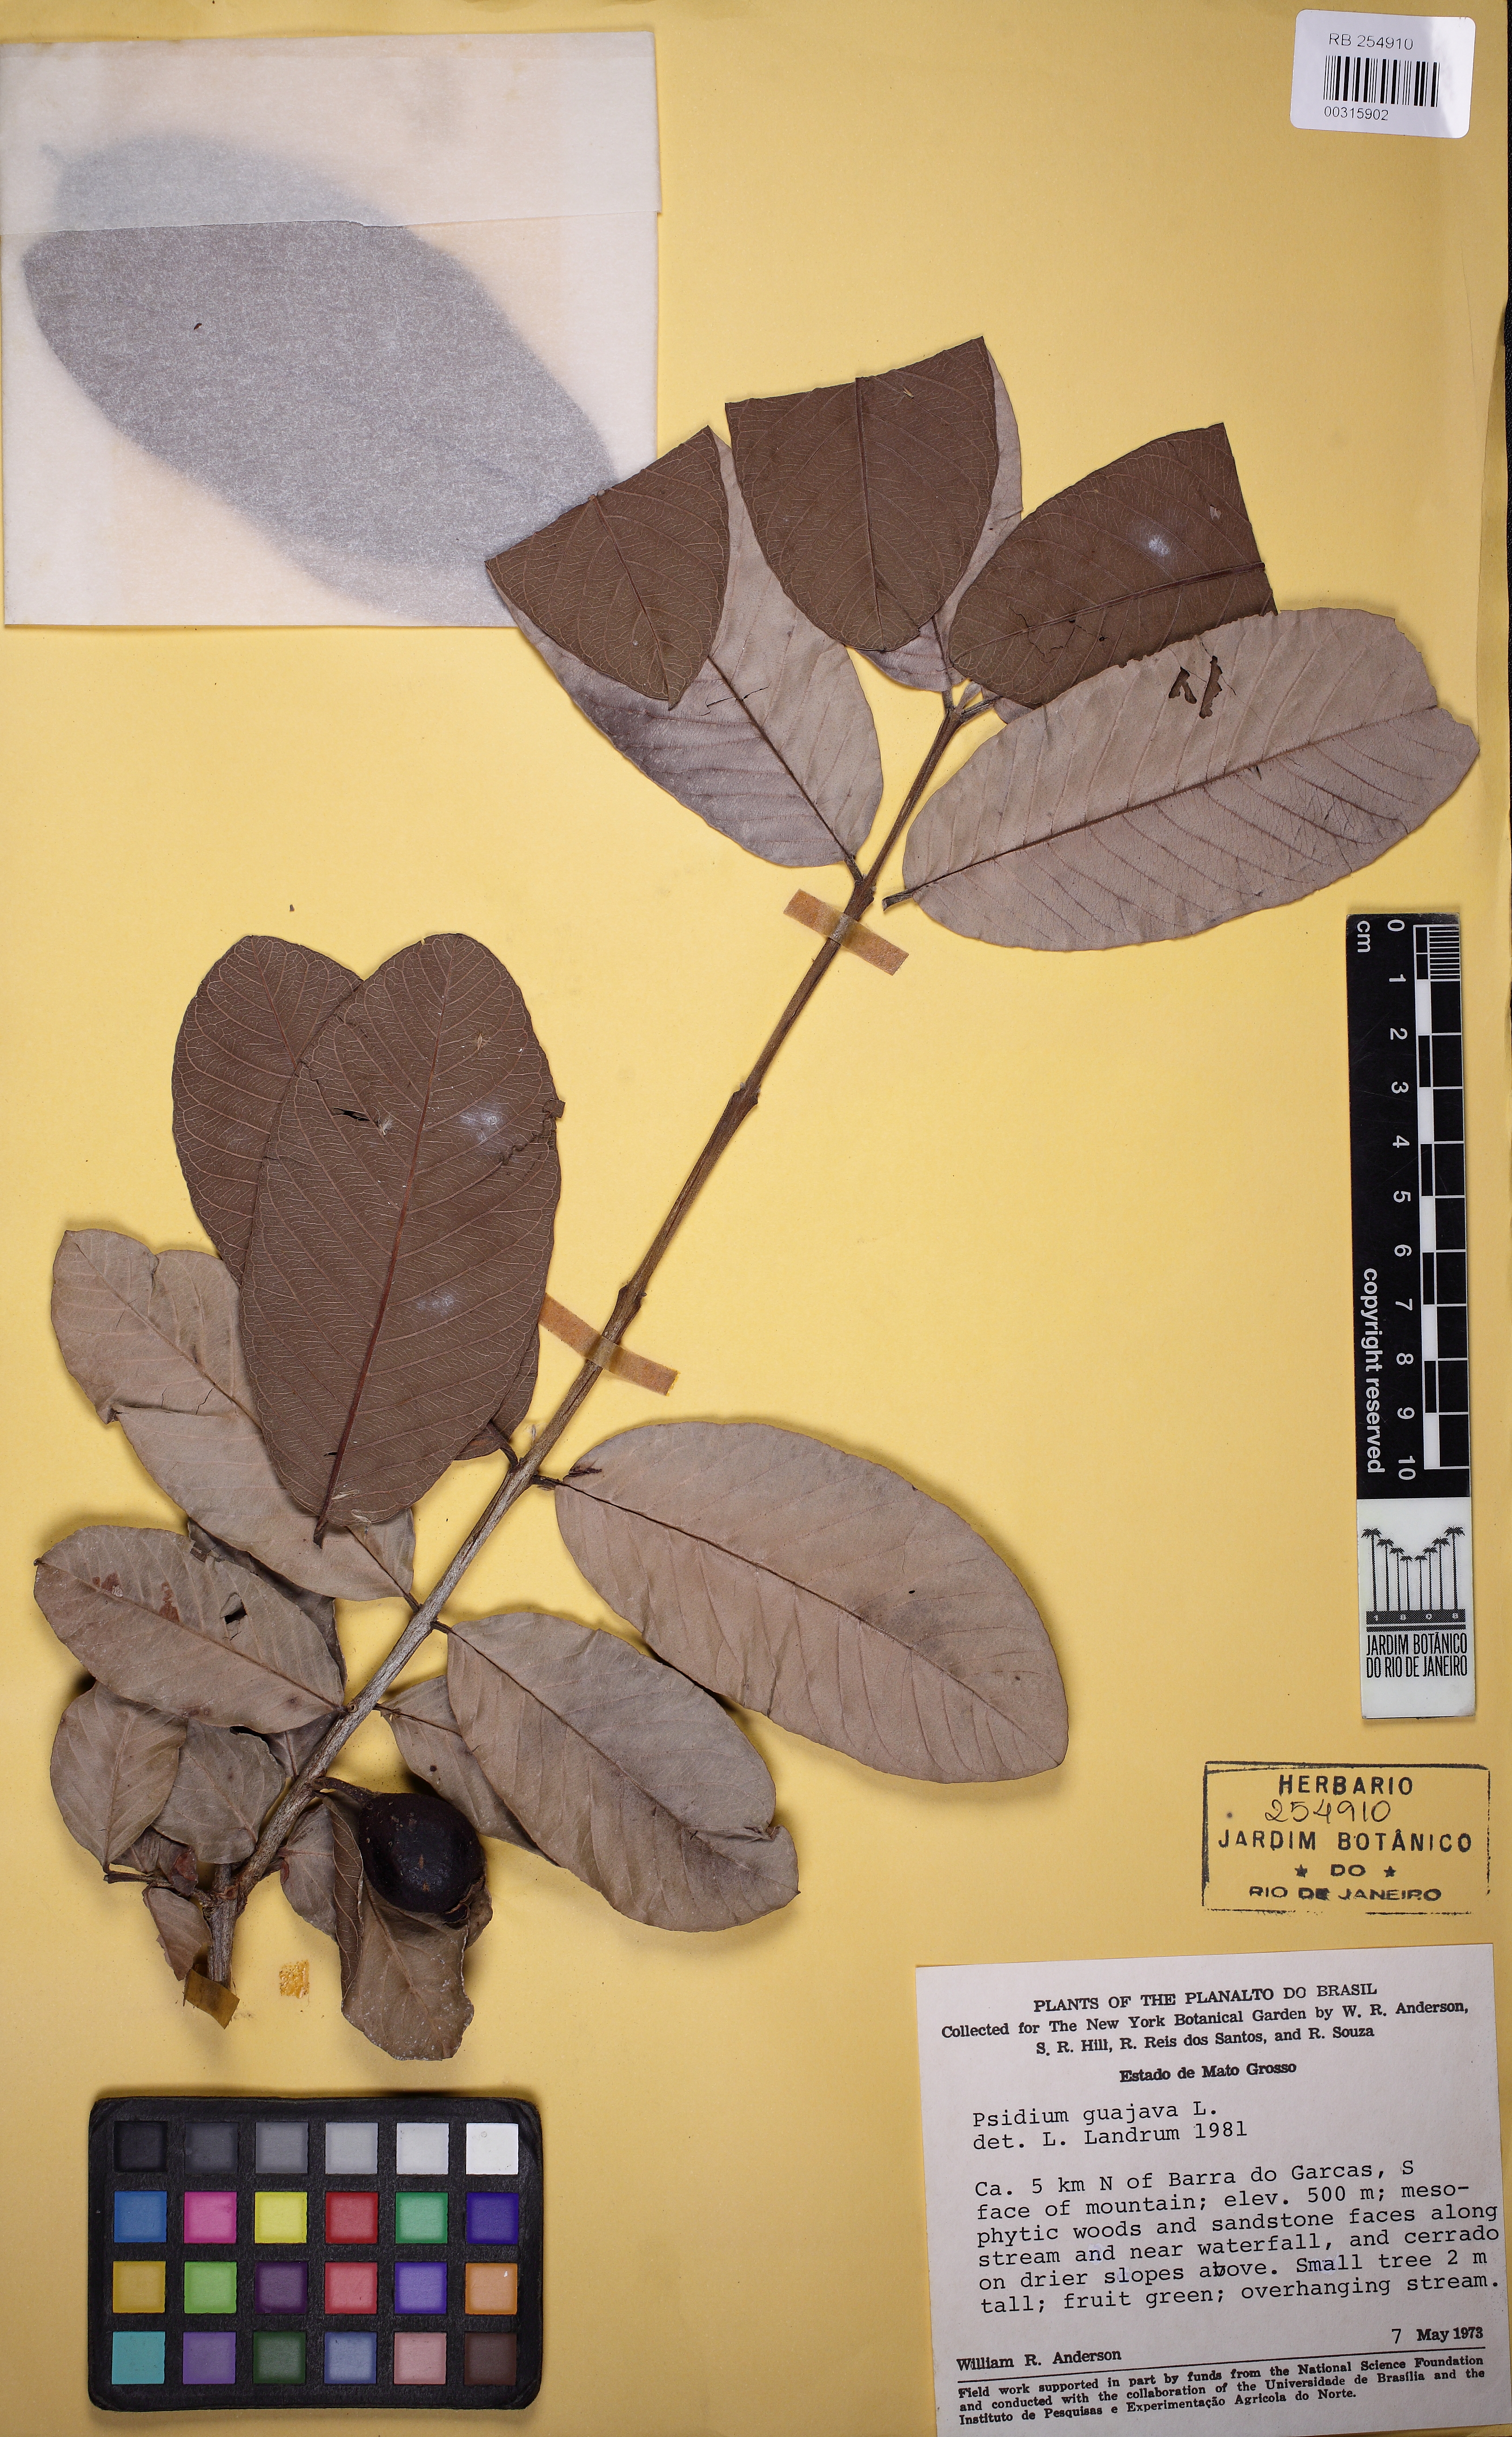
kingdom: Plantae
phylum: Tracheophyta
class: Magnoliopsida
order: Myrtales
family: Myrtaceae
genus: Psidium
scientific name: Psidium guajava
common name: Guava
